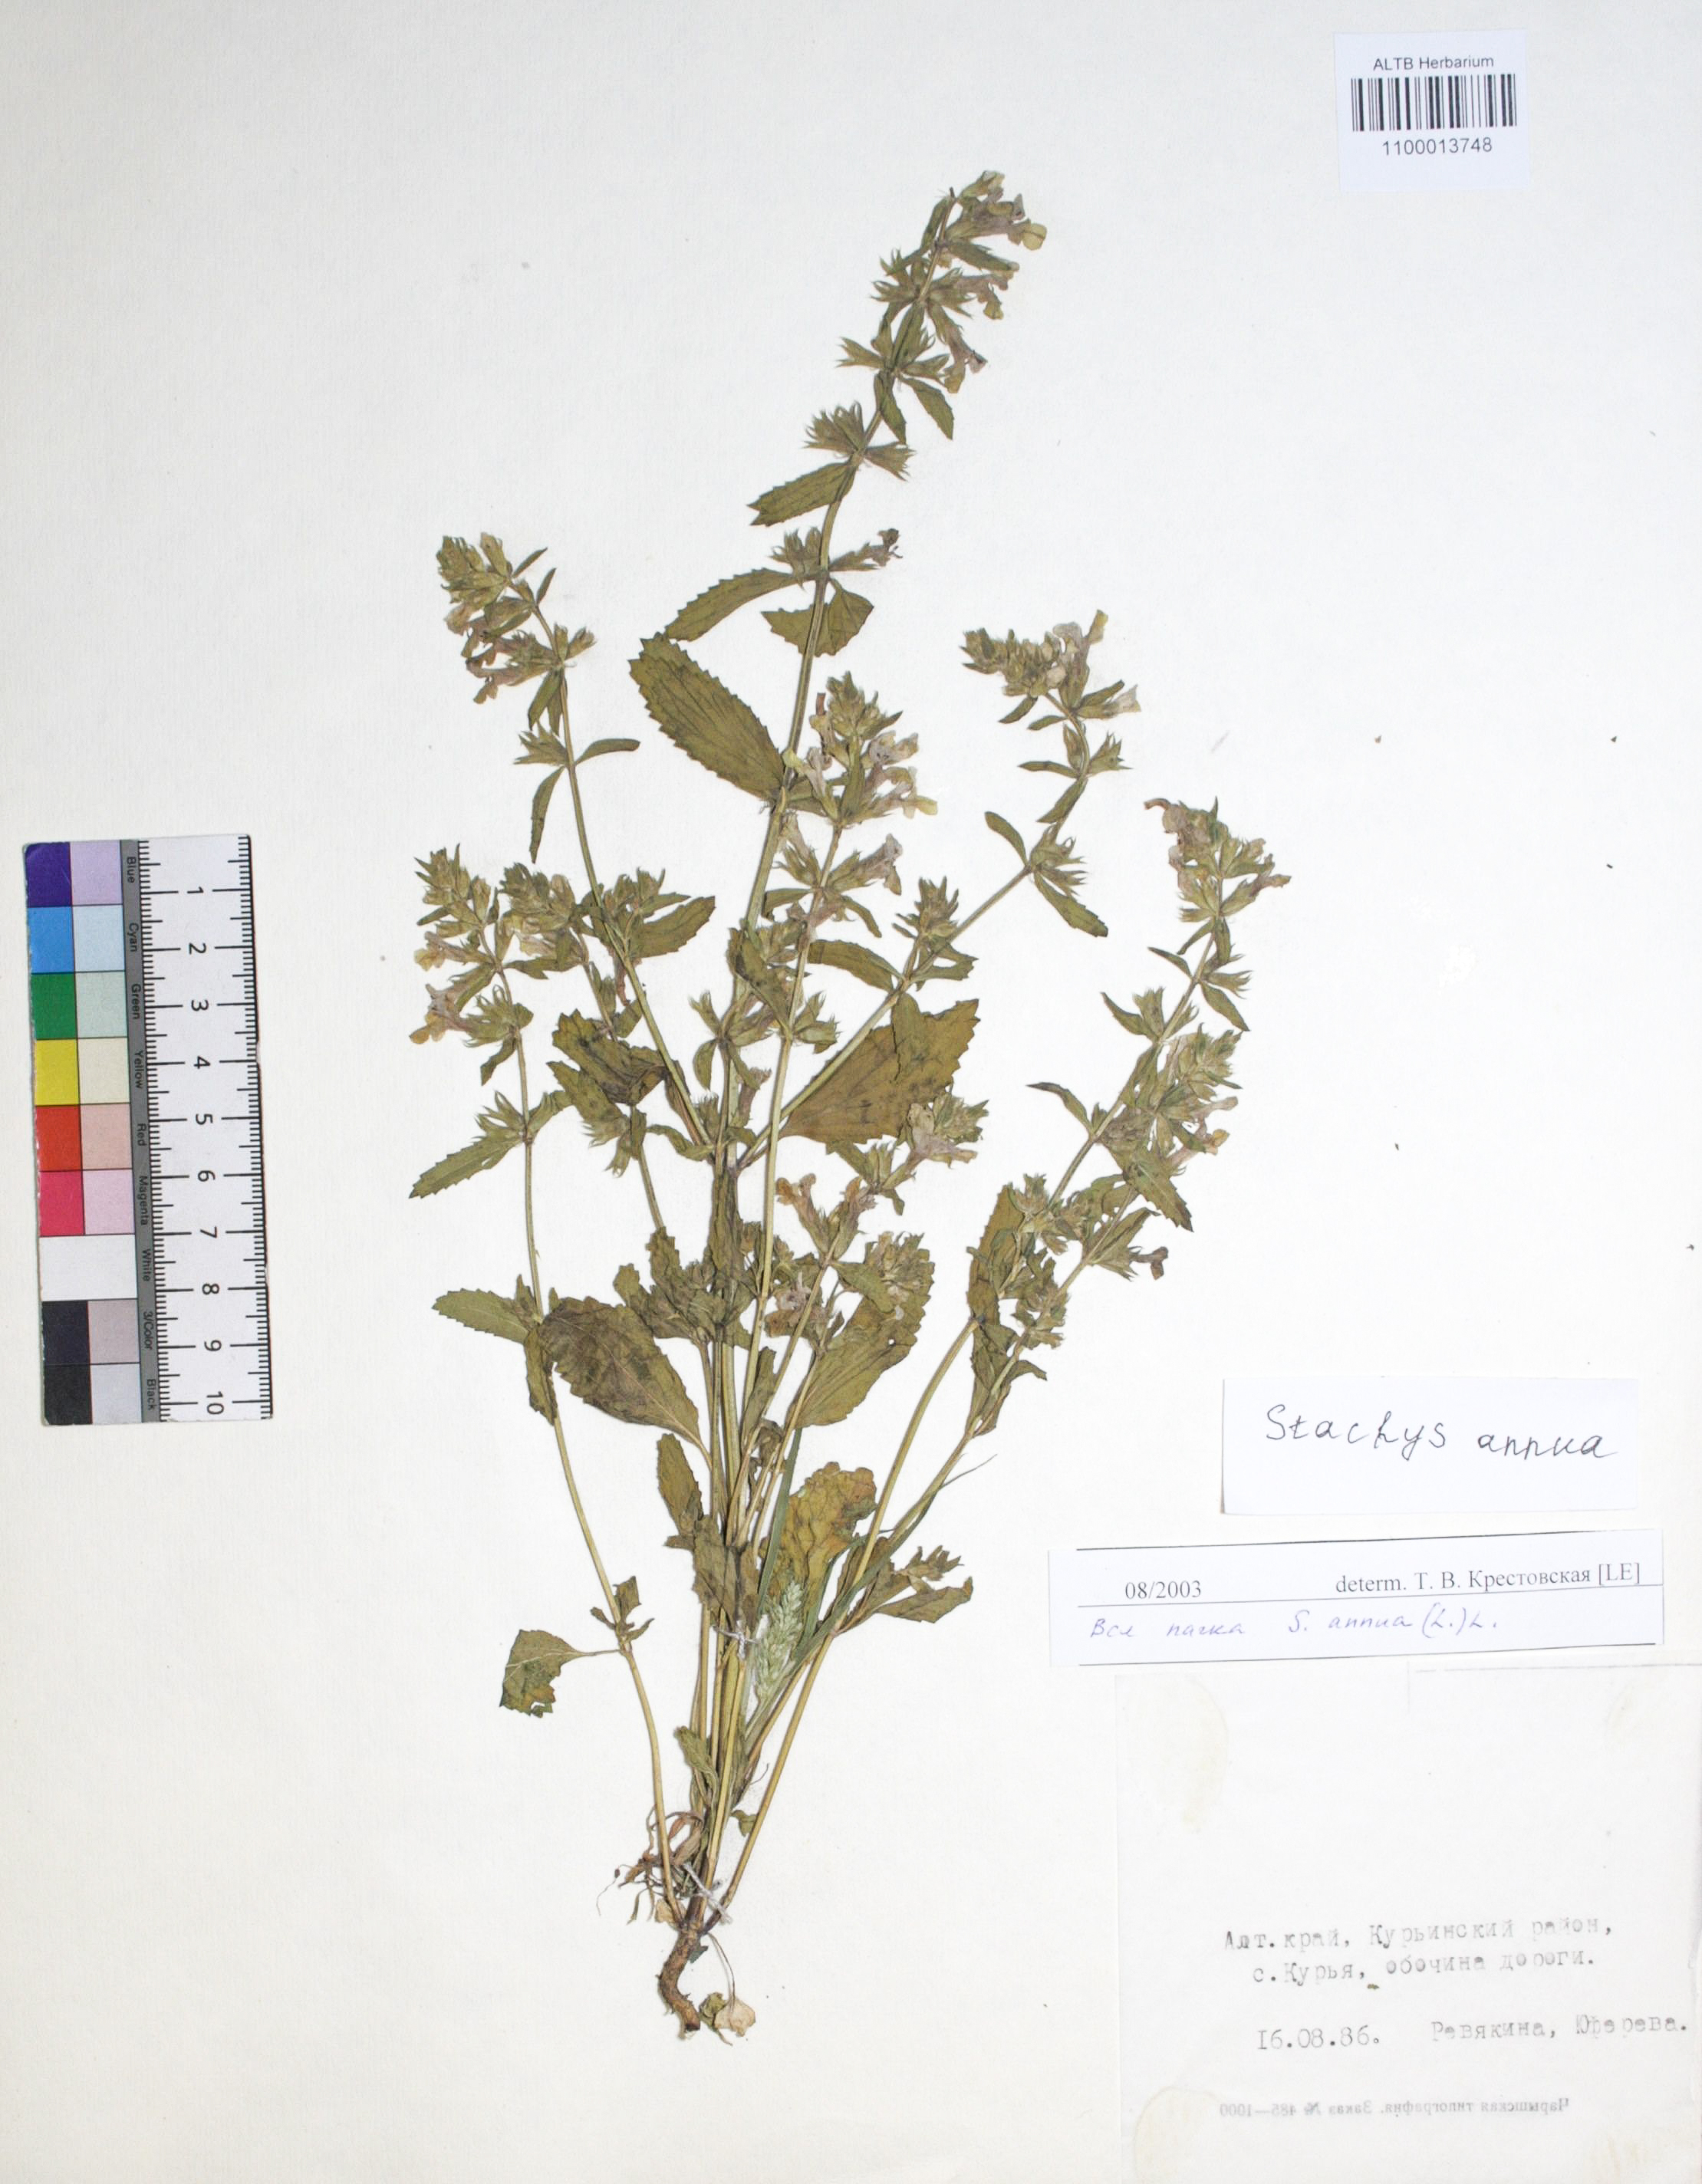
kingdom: Plantae
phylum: Tracheophyta
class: Magnoliopsida
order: Lamiales
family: Lamiaceae
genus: Stachys
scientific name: Stachys annua
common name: Annual yellow-woundwort
